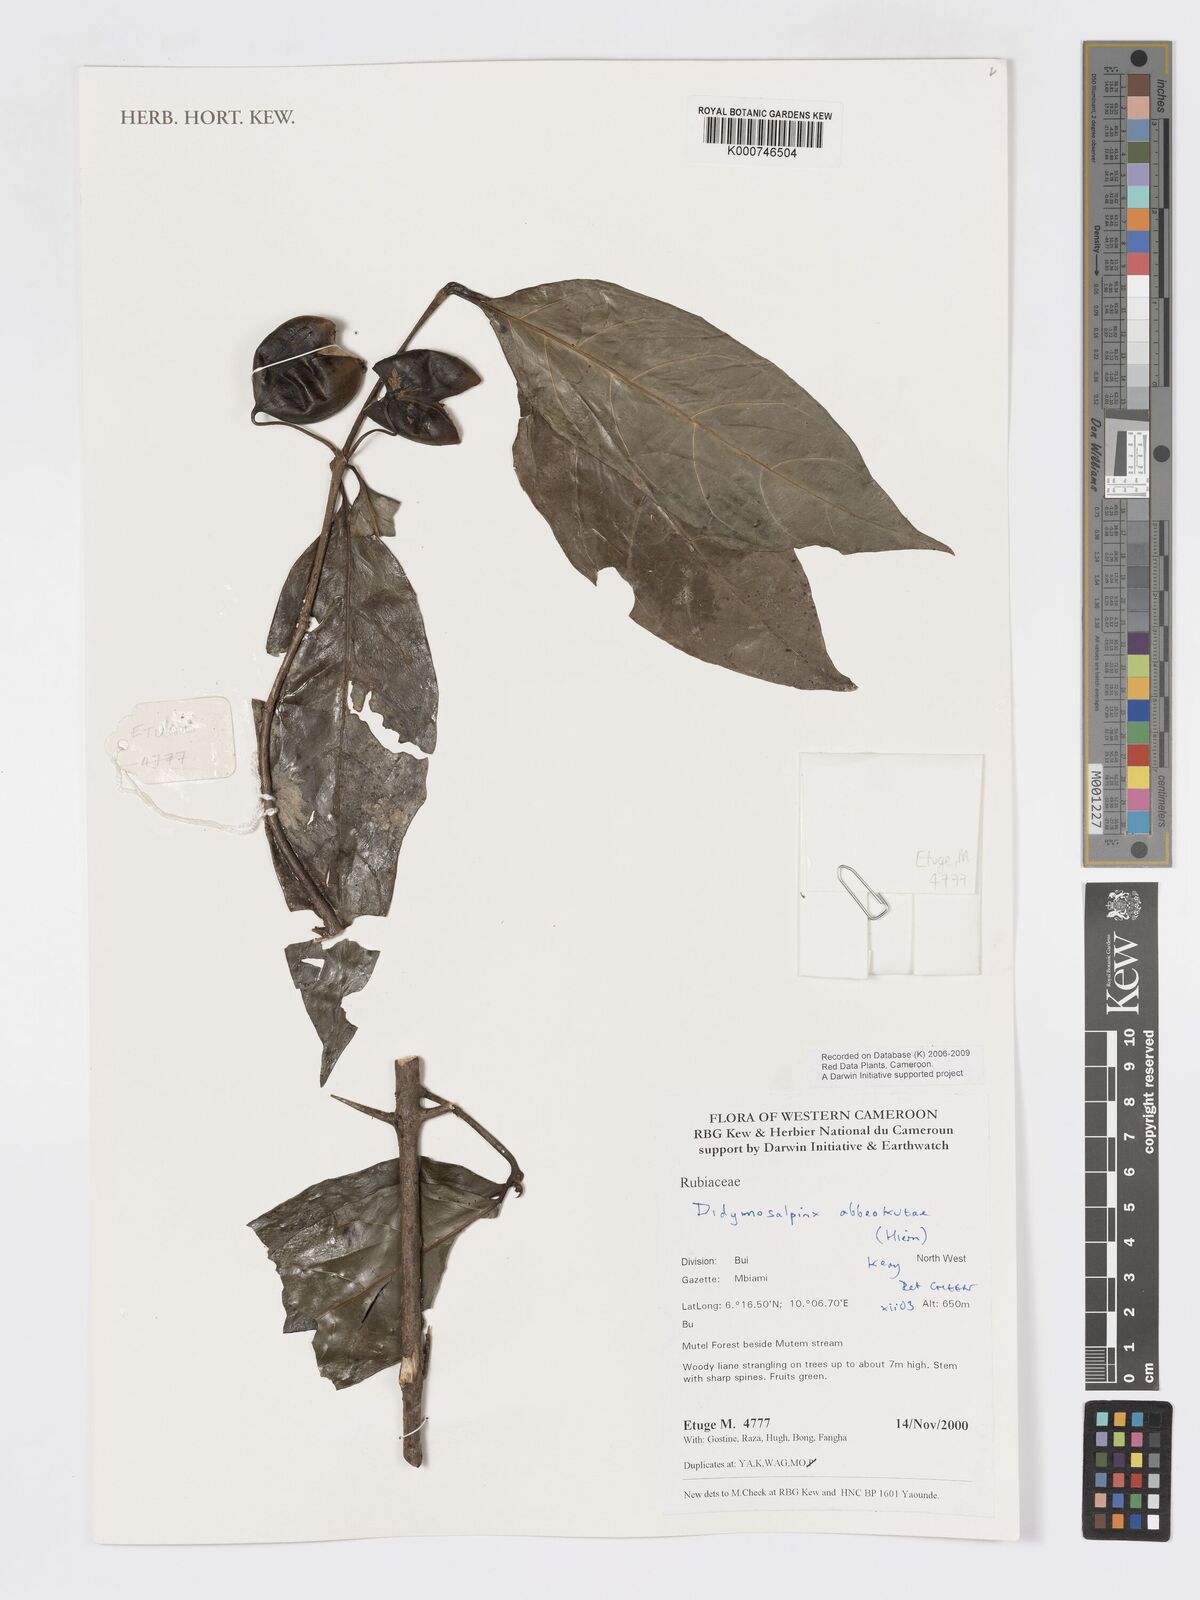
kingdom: Plantae
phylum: Tracheophyta
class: Magnoliopsida
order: Gentianales
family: Rubiaceae
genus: Didymosalpinx
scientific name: Didymosalpinx abbeokutae
